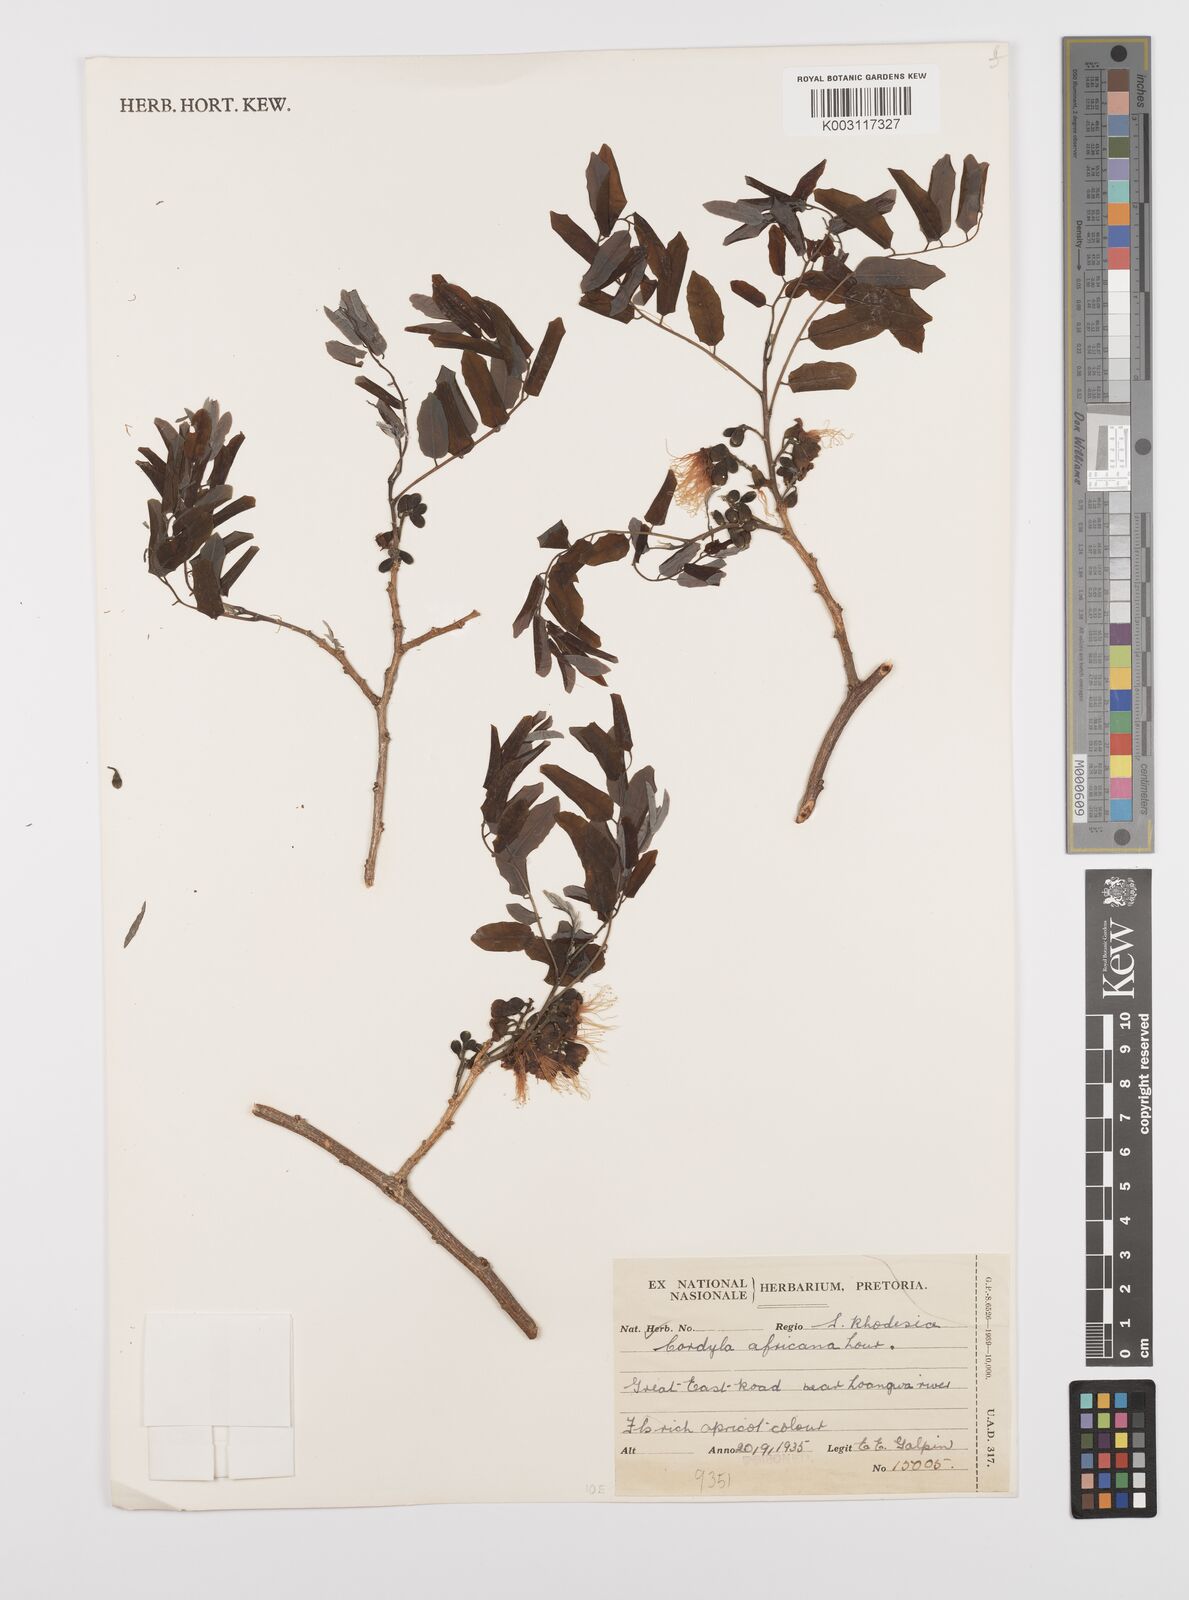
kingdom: Plantae
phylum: Tracheophyta
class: Magnoliopsida
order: Fabales
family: Fabaceae
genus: Cordyla
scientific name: Cordyla africana
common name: Wild mango
